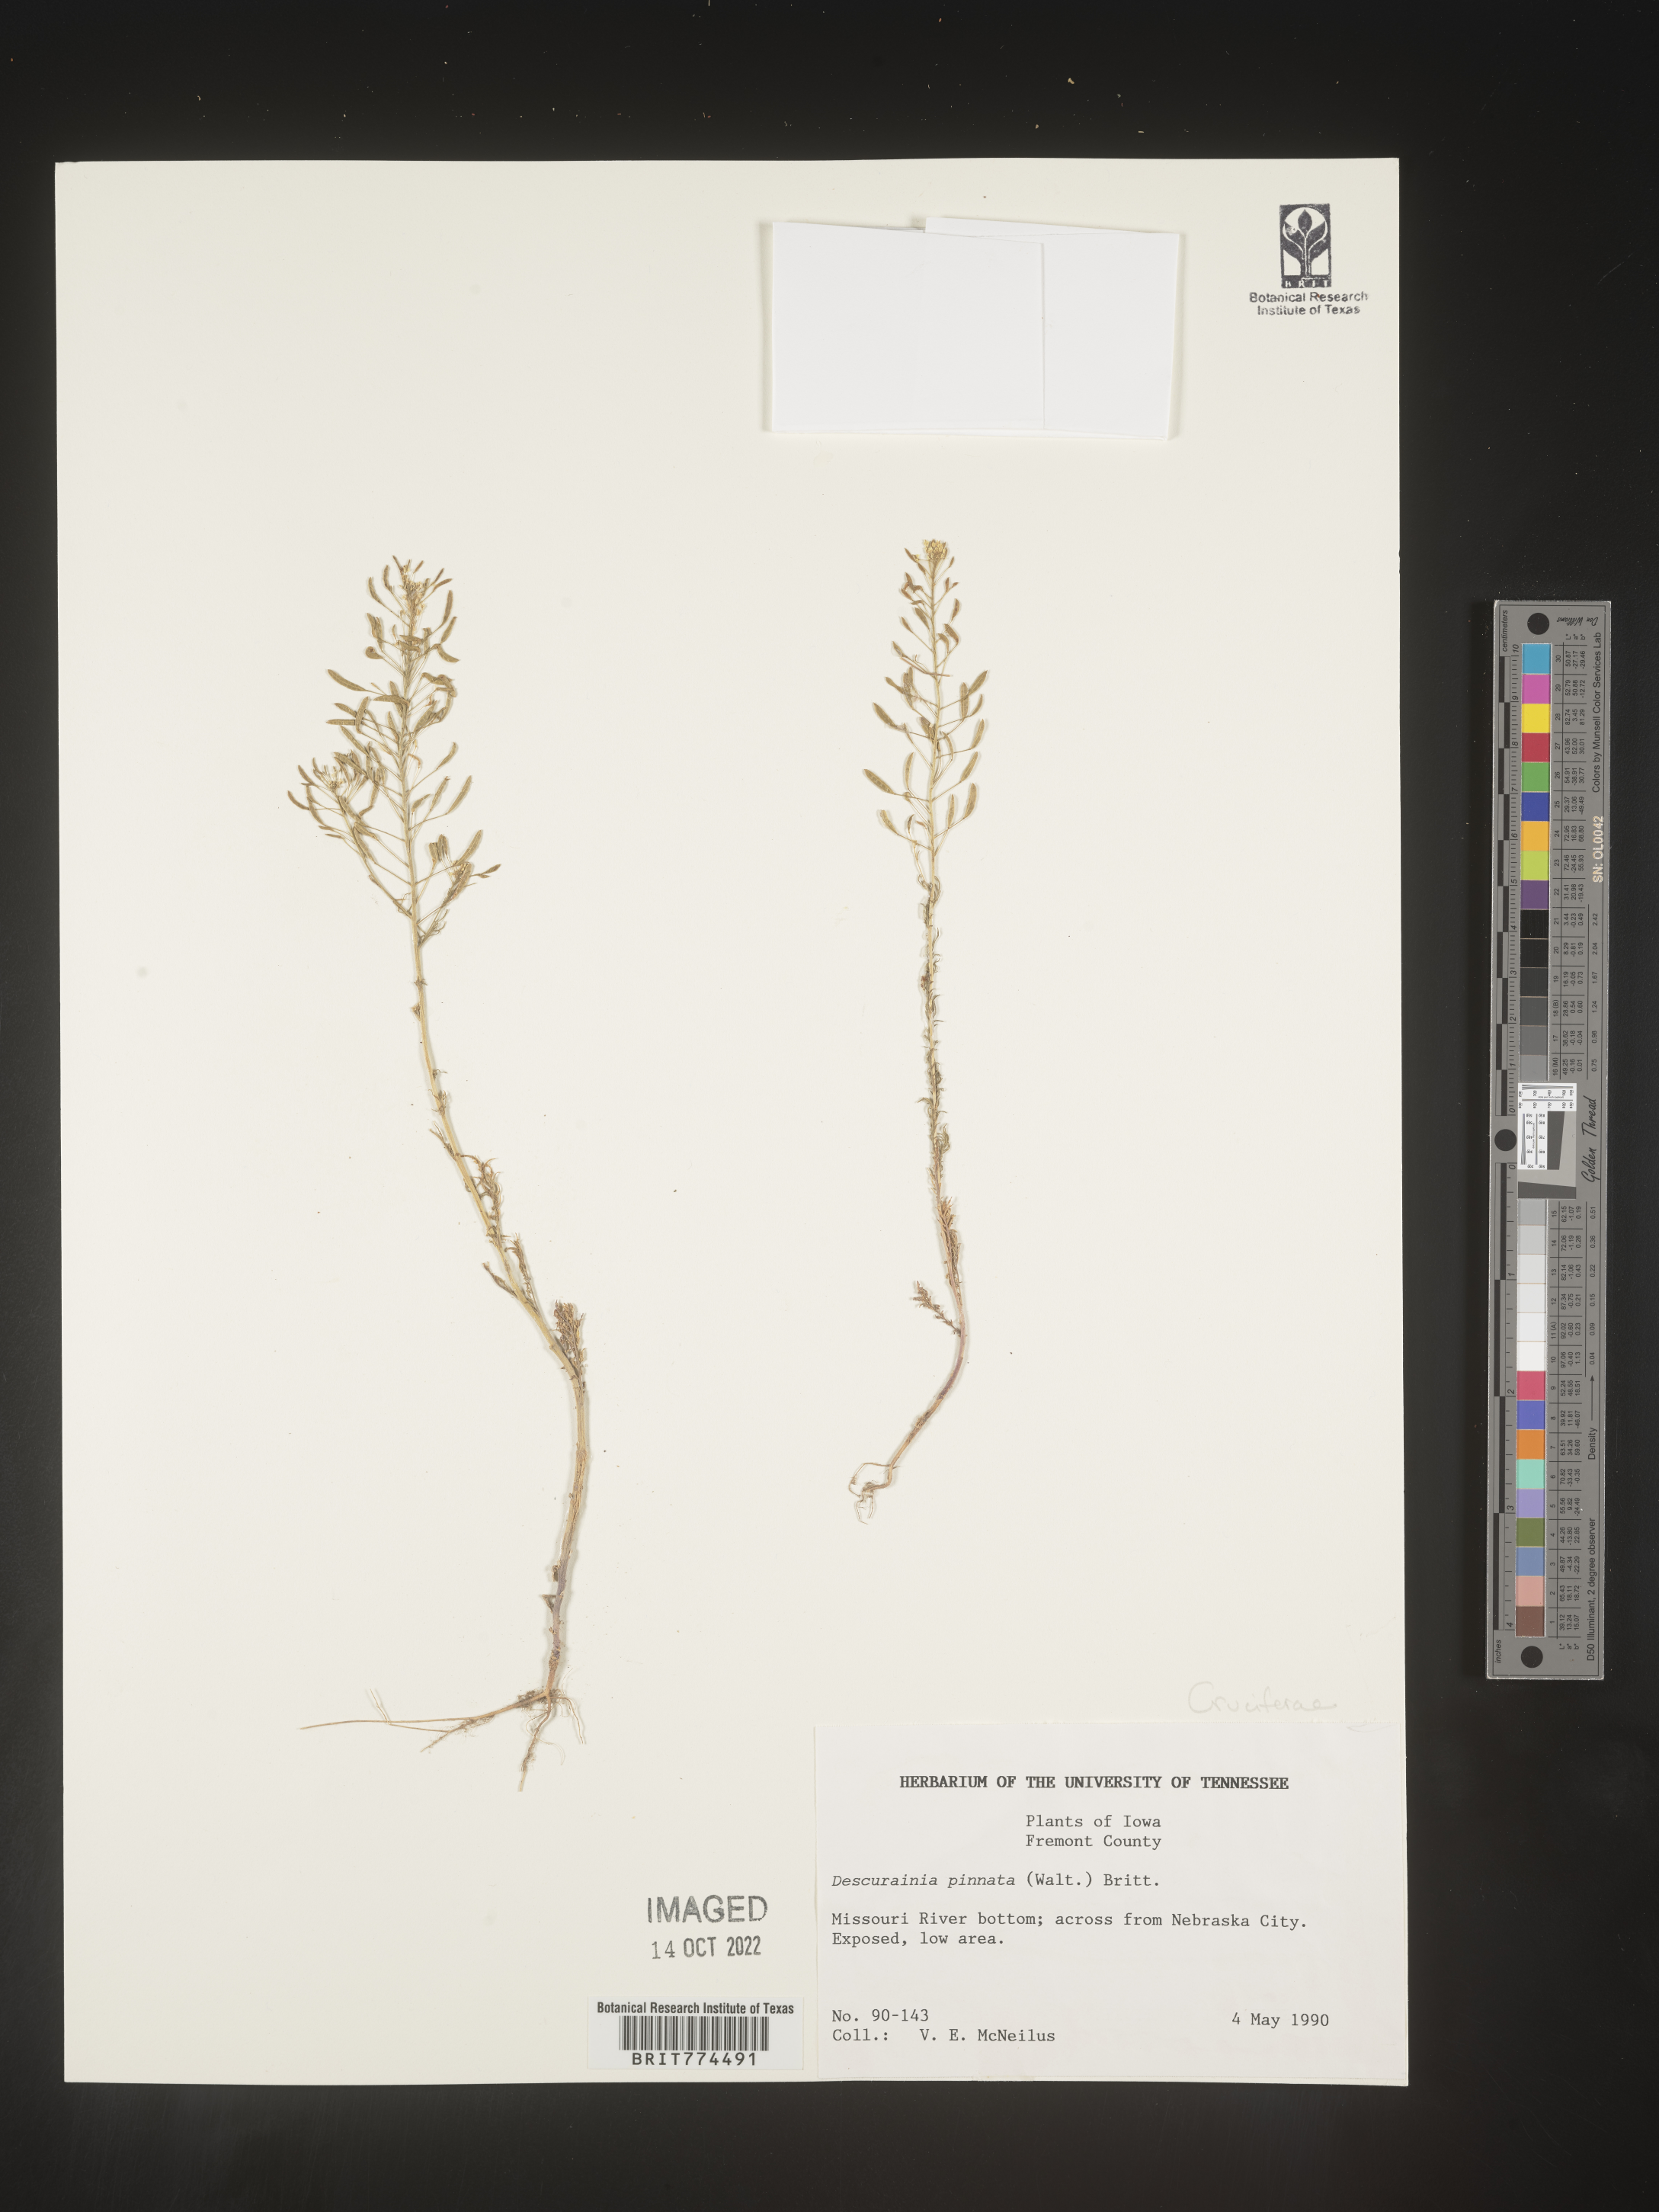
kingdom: Plantae
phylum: Tracheophyta
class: Magnoliopsida
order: Brassicales
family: Brassicaceae
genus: Descurainia
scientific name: Descurainia pinnata
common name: Western tansy mustard
